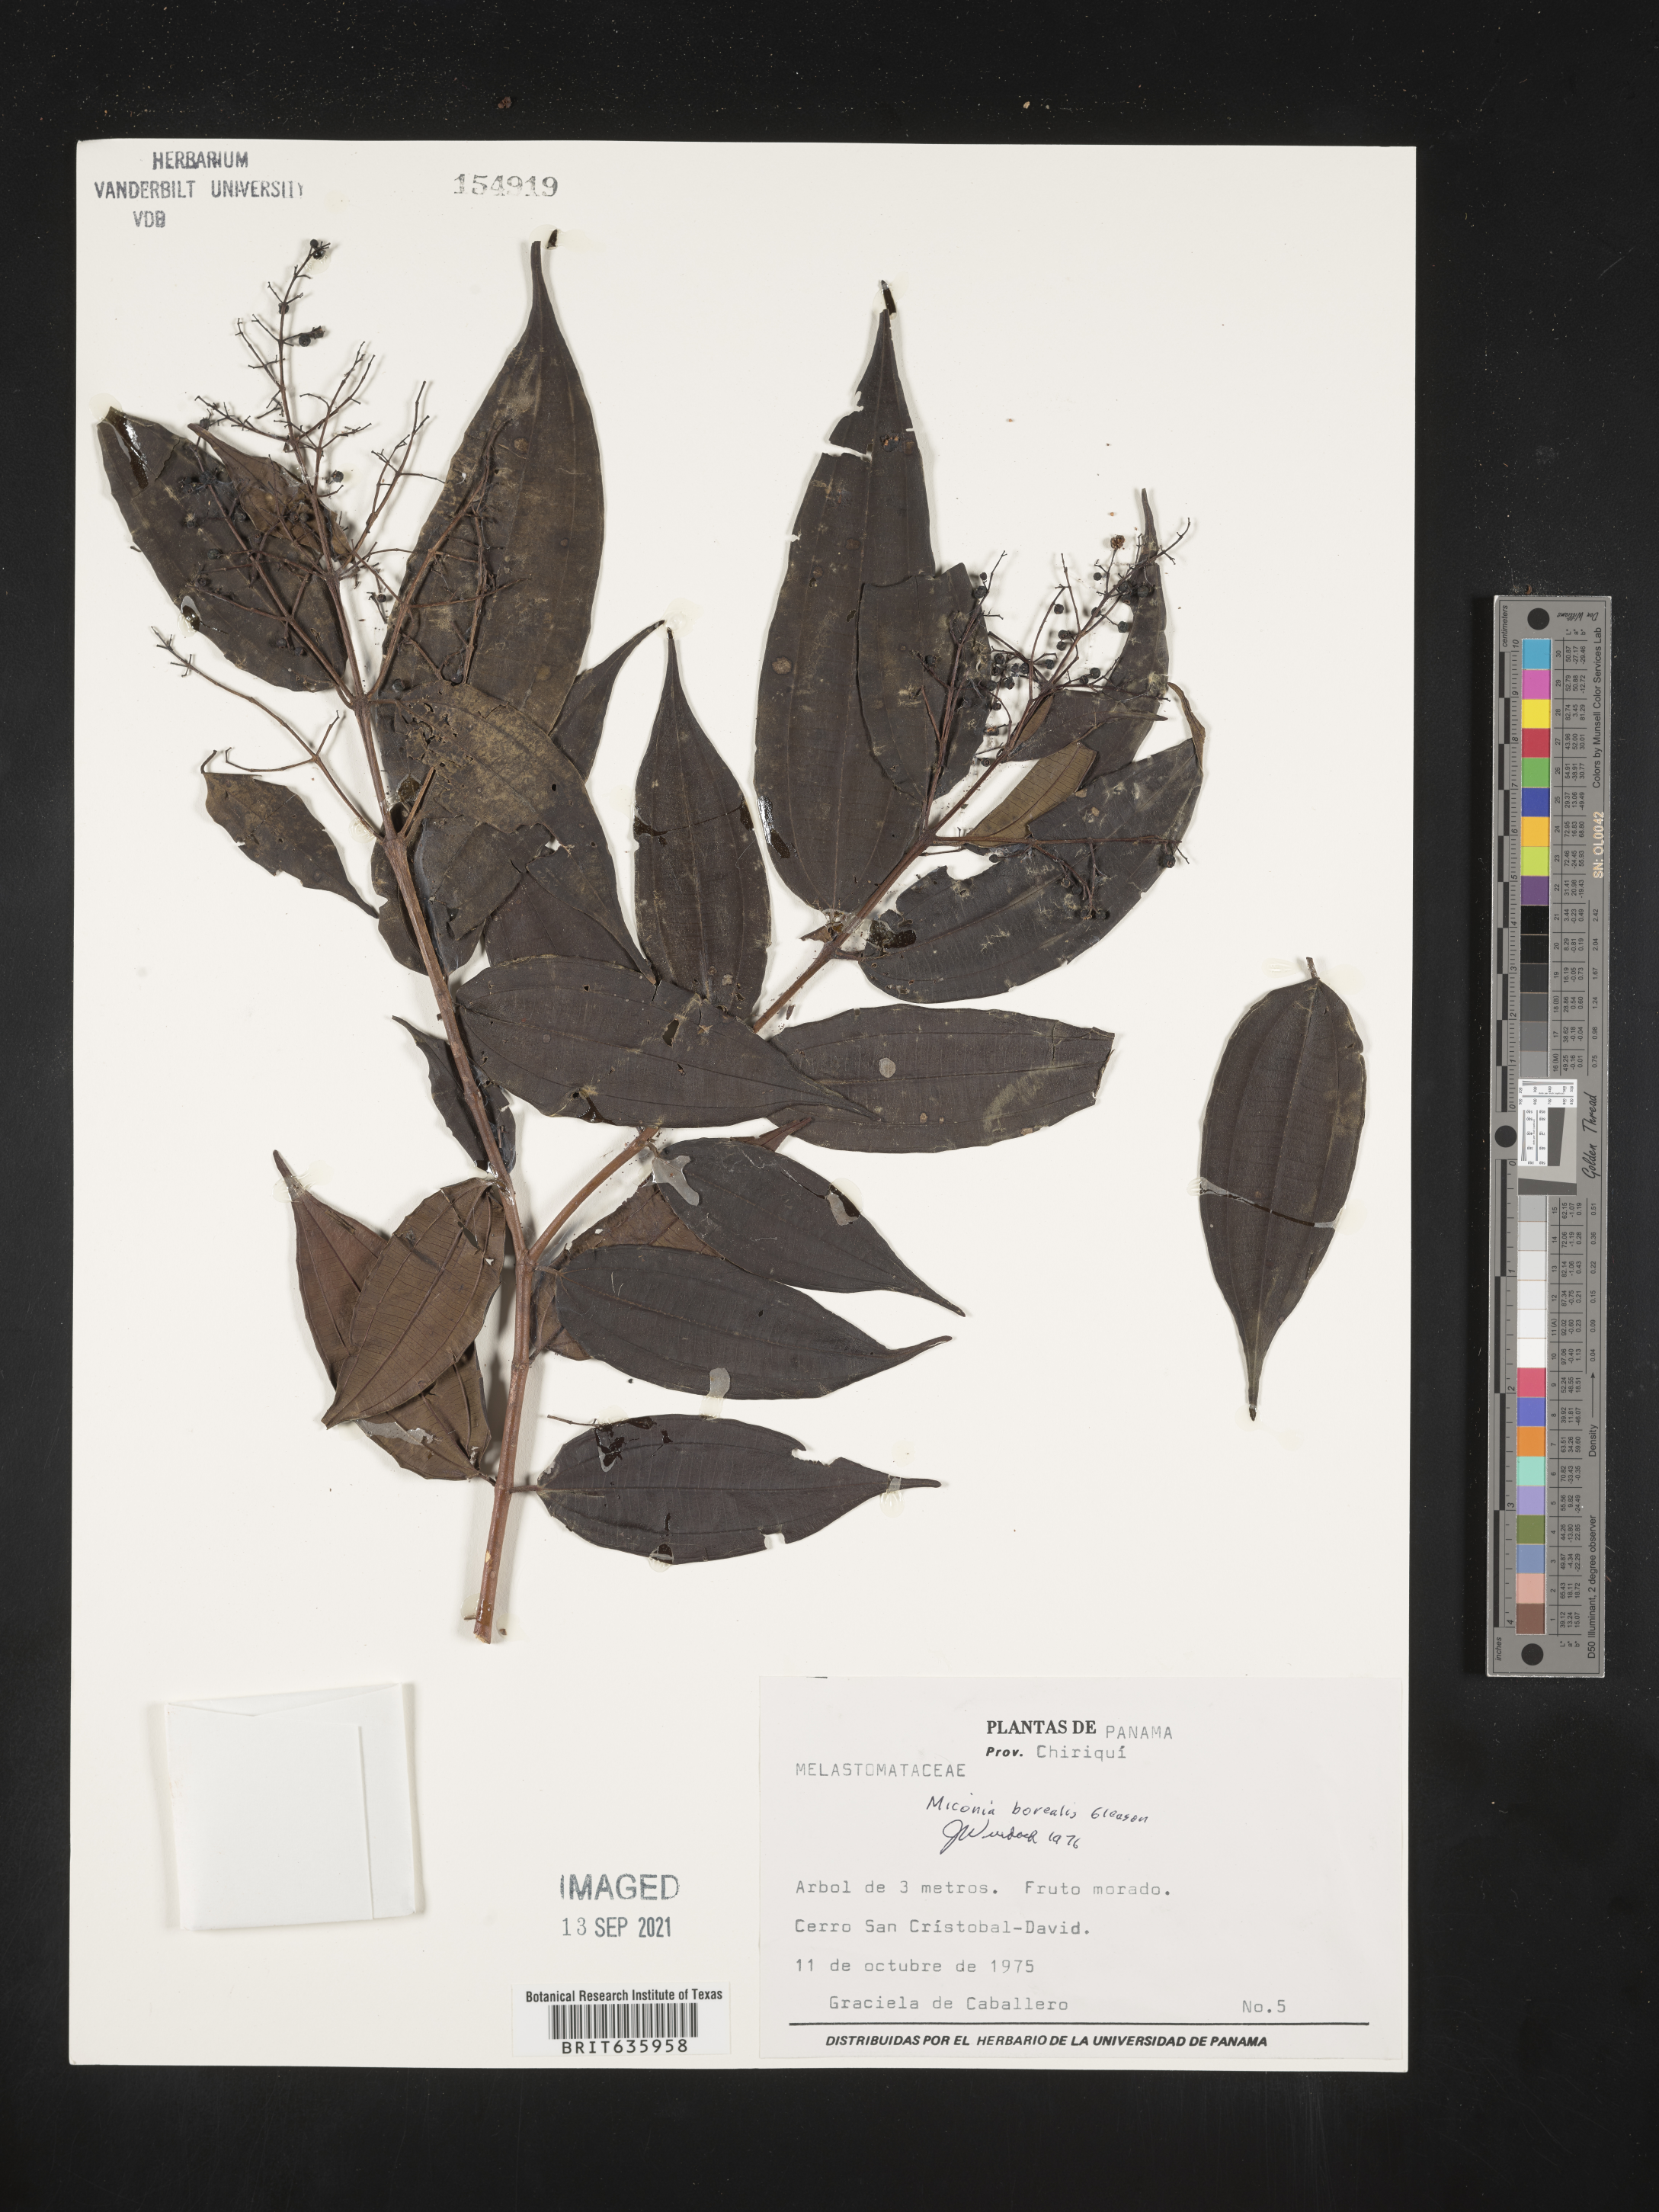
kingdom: Plantae
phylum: Tracheophyta
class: Magnoliopsida
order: Myrtales
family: Melastomataceae
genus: Miconia
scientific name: Miconia
